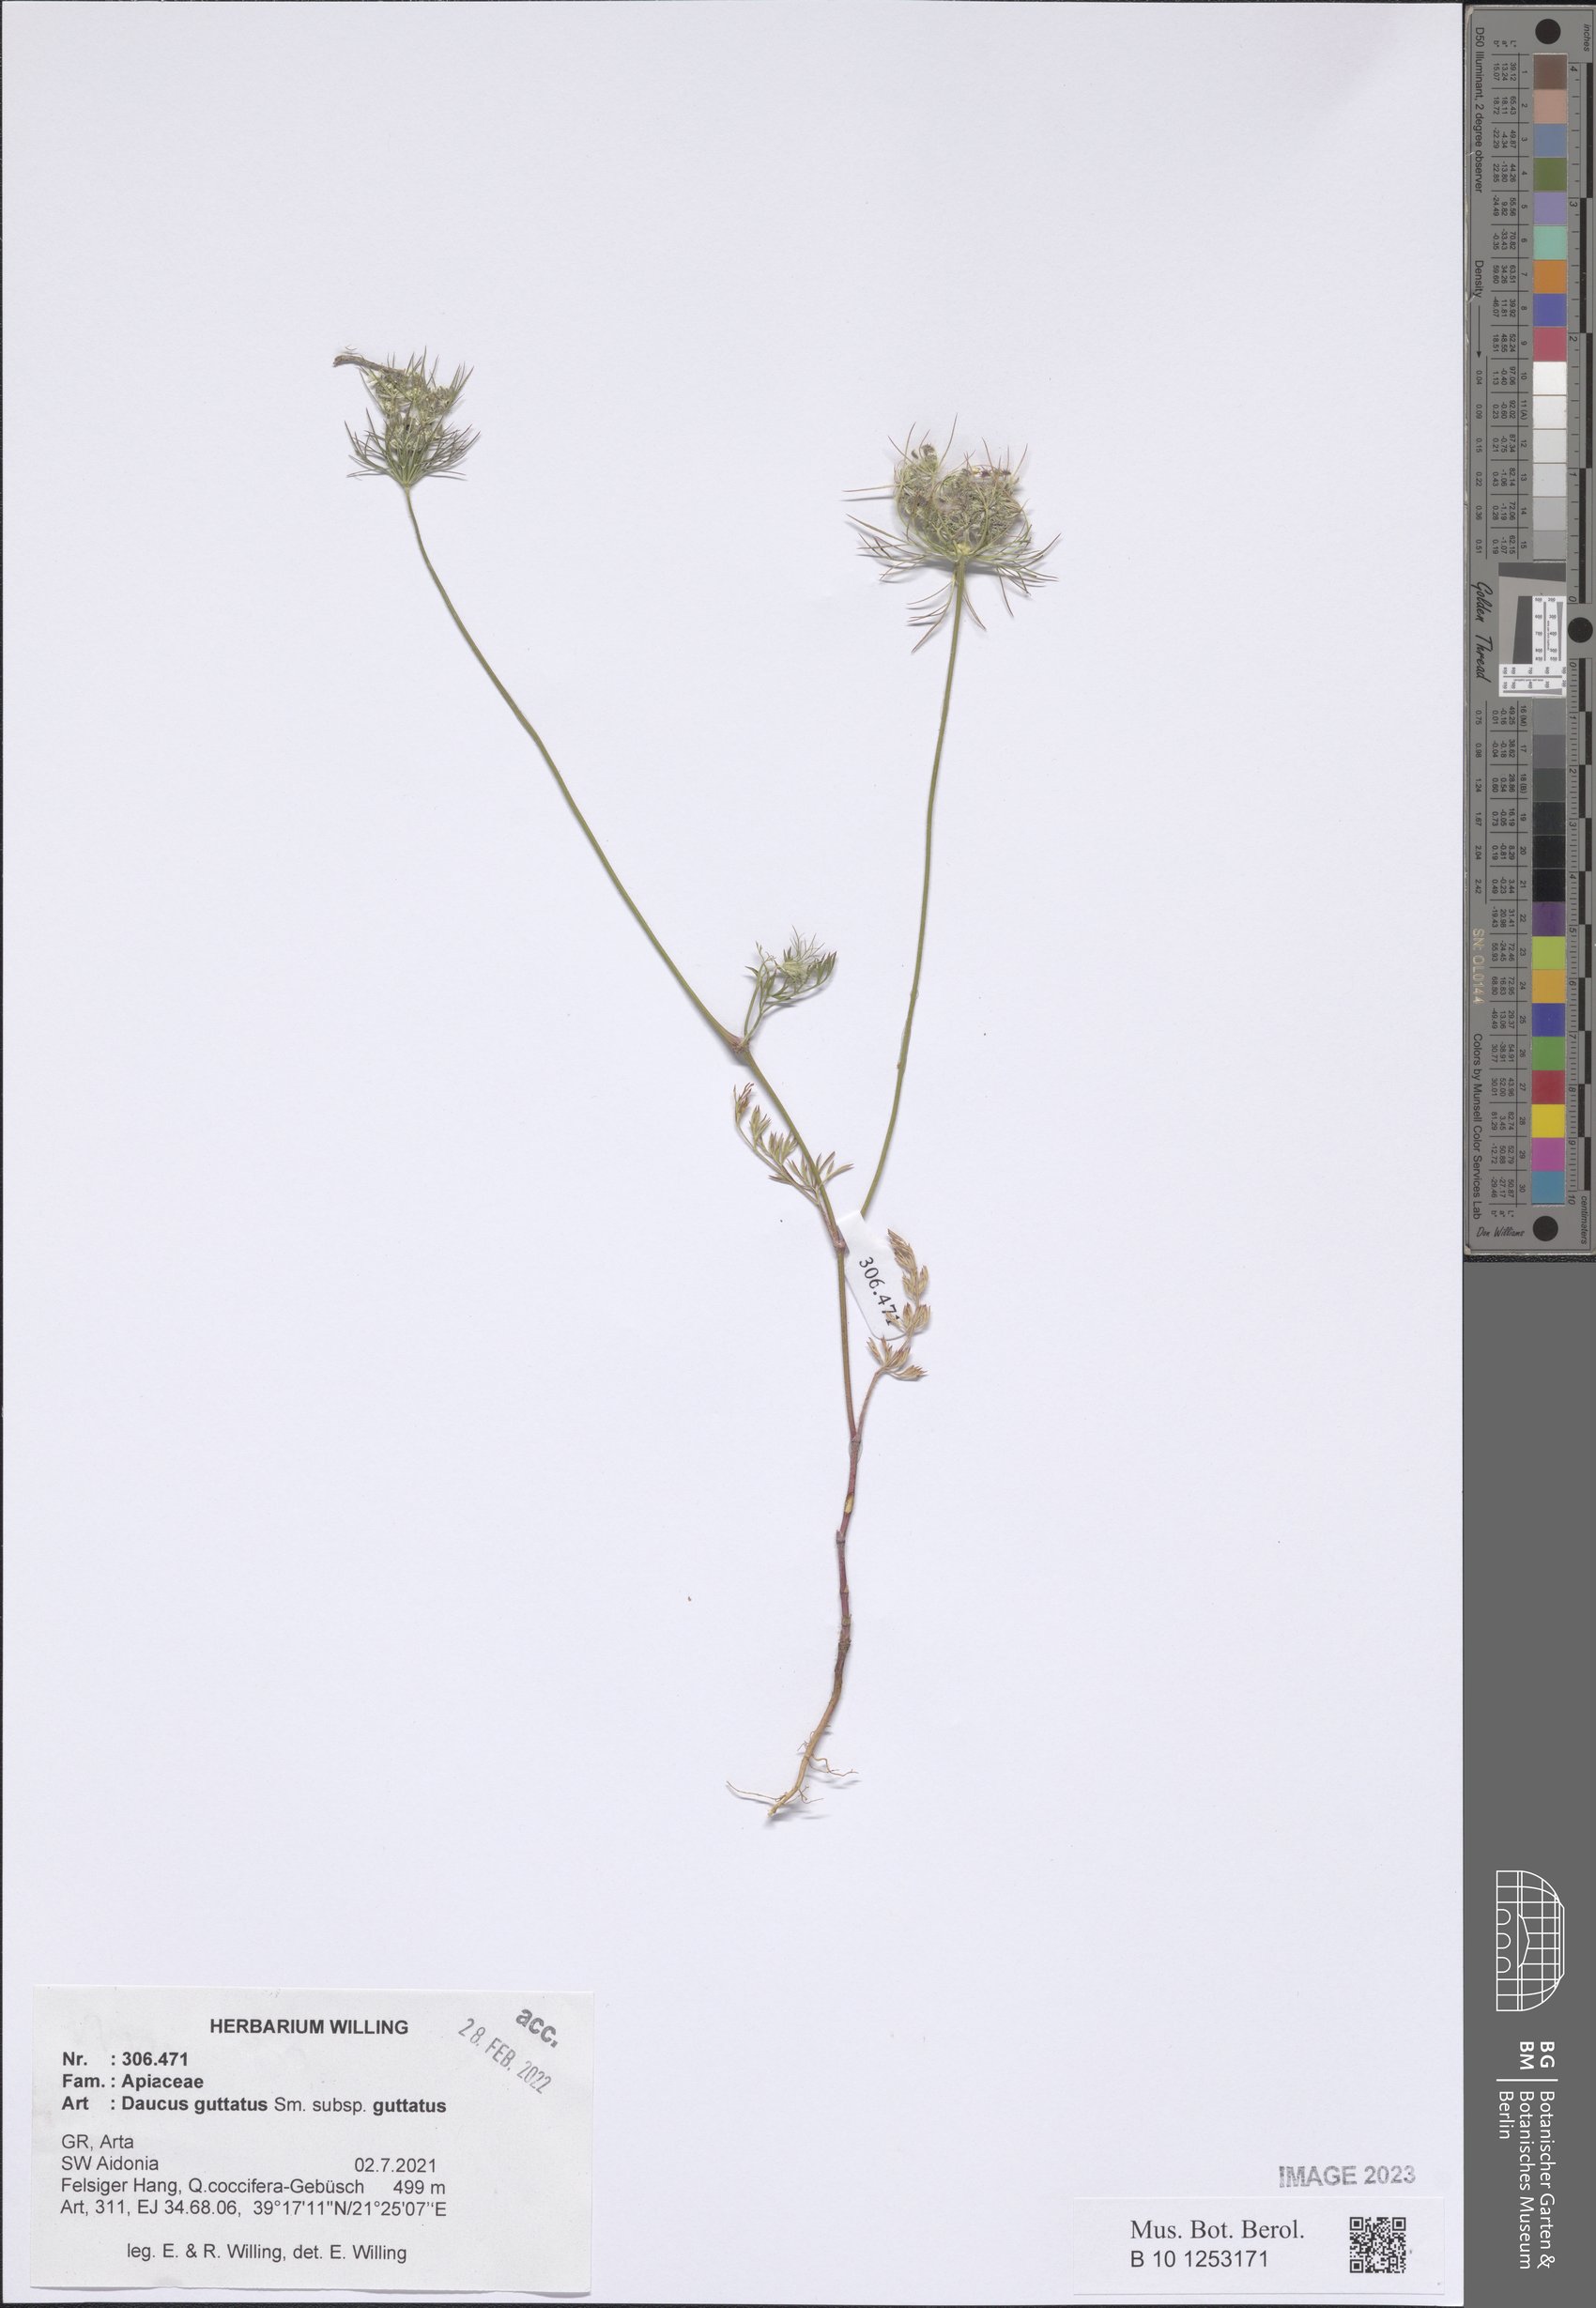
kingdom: Plantae
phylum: Tracheophyta
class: Magnoliopsida
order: Apiales
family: Apiaceae
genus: Daucus
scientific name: Daucus guttatus
